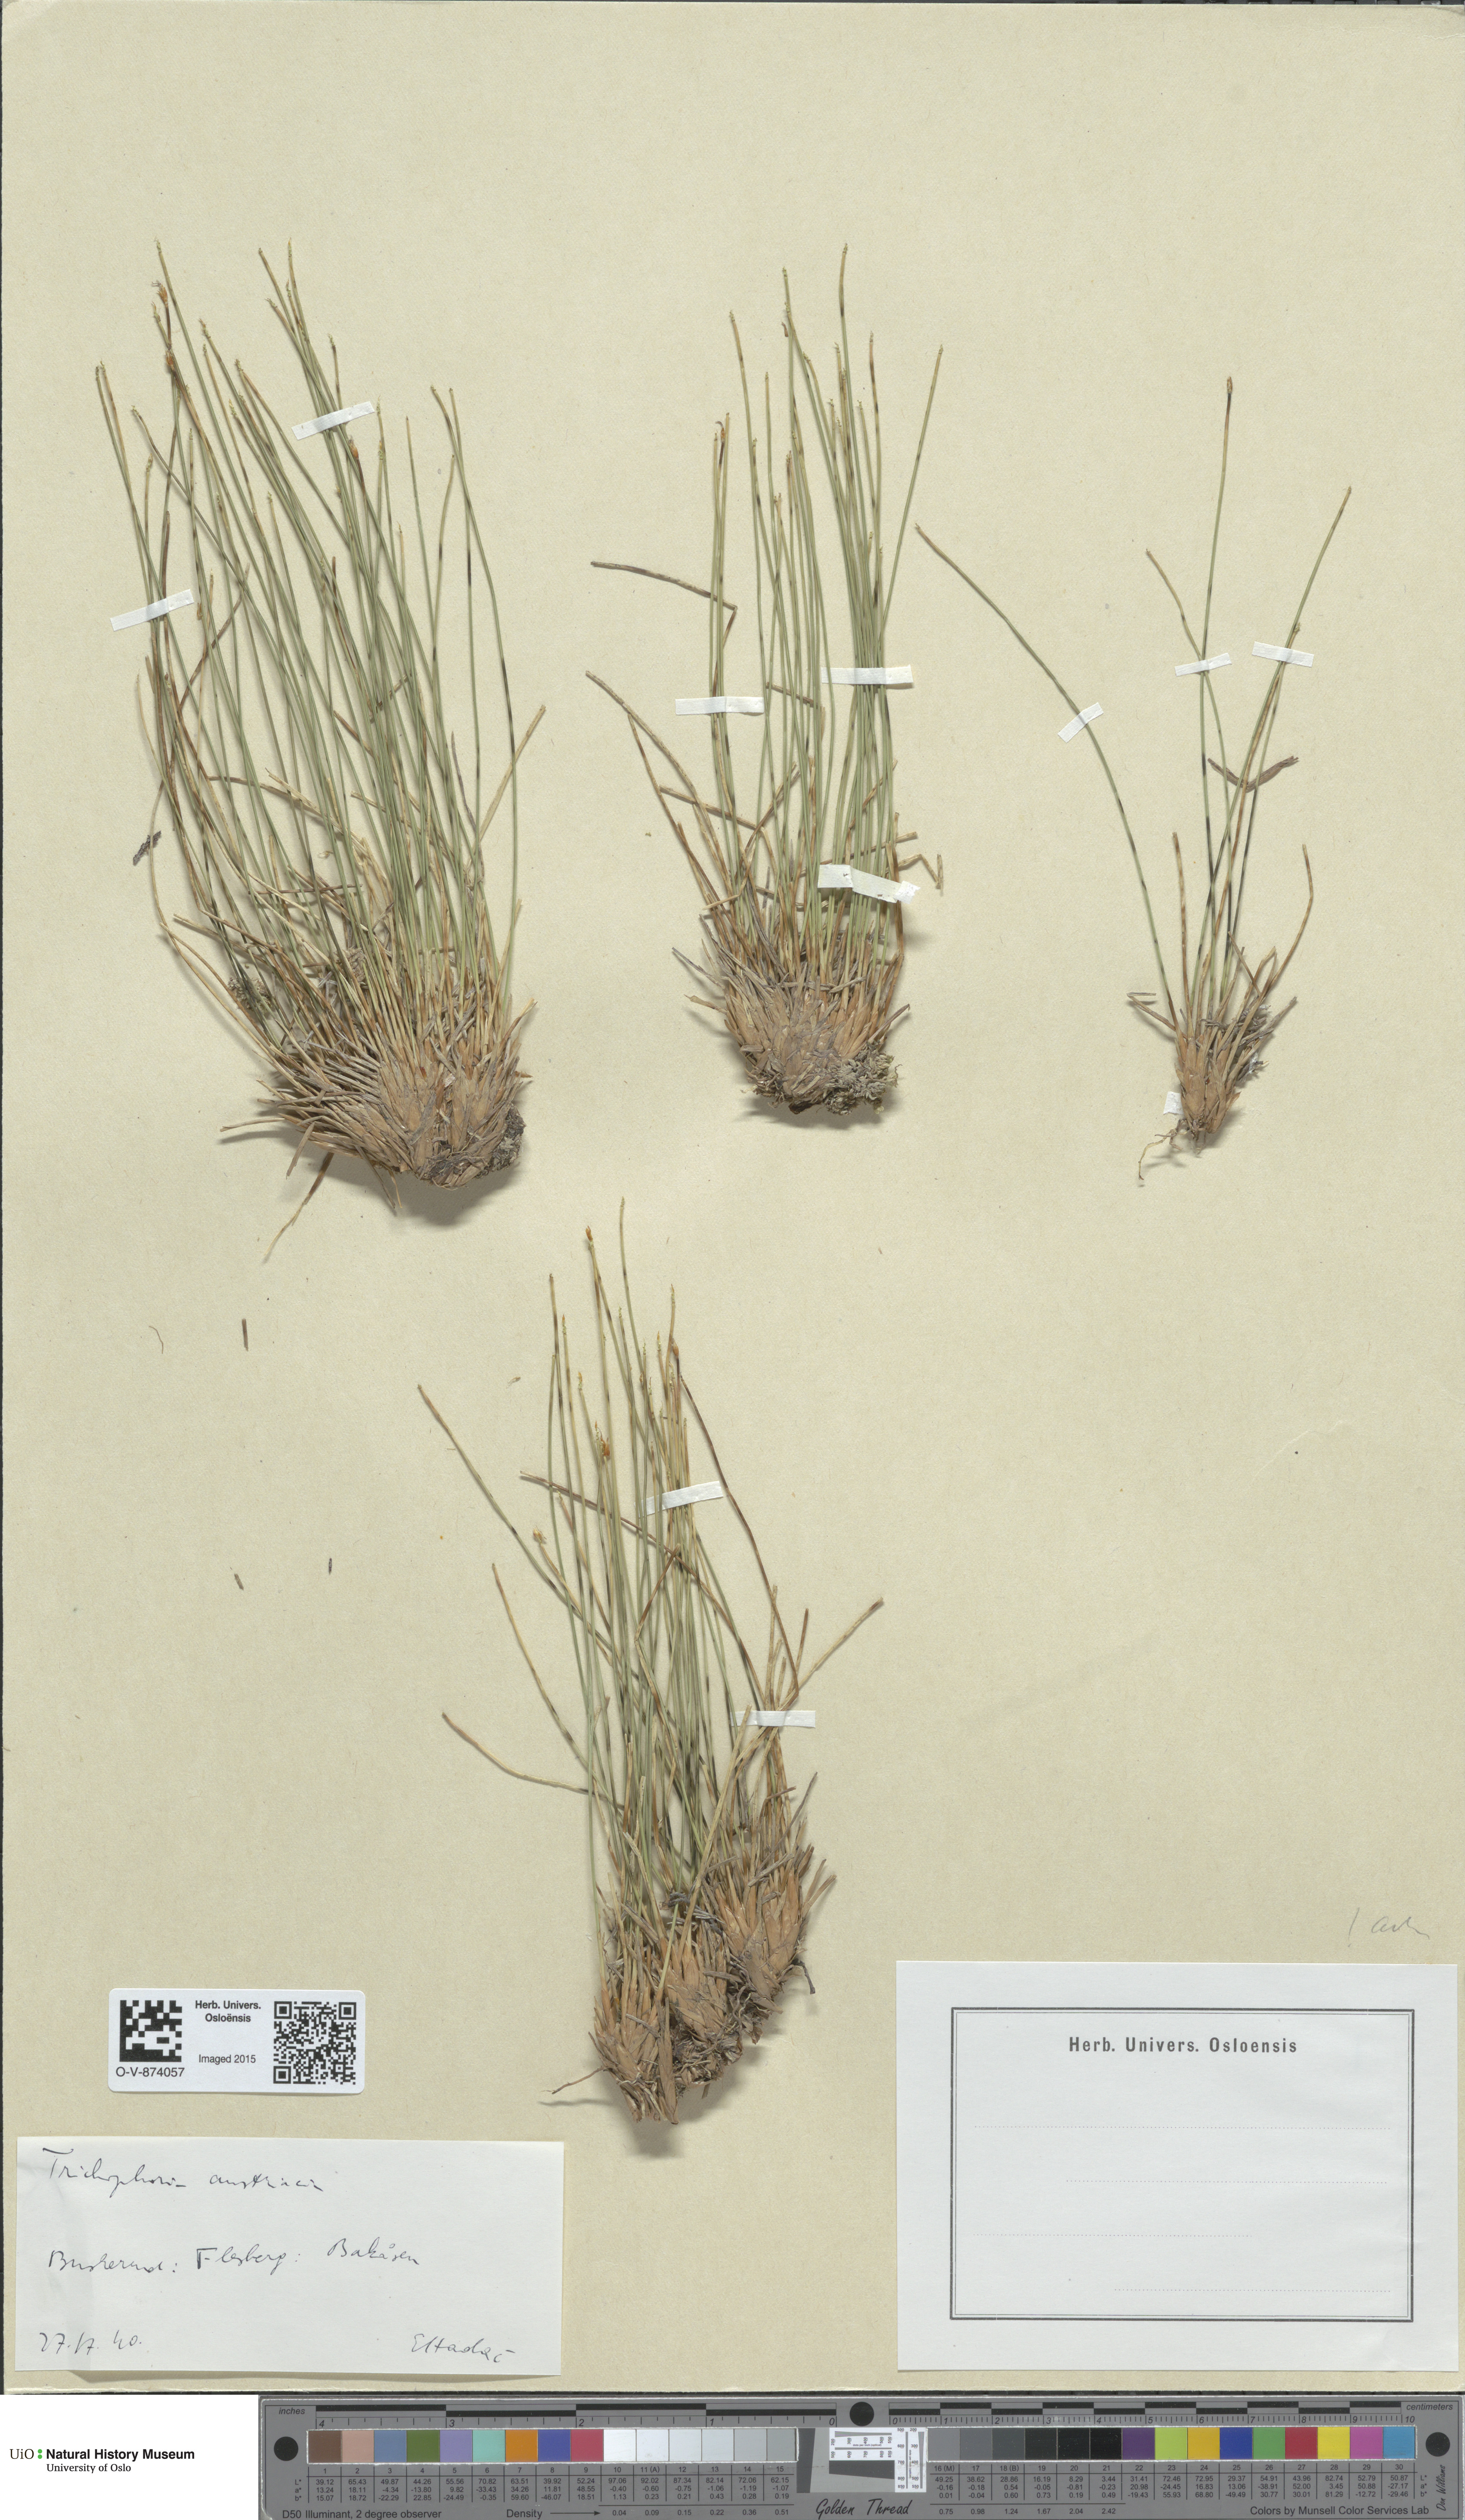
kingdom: Plantae
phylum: Tracheophyta
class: Liliopsida
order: Poales
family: Cyperaceae
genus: Trichophorum
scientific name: Trichophorum cespitosum
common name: Cespitose bulrush
